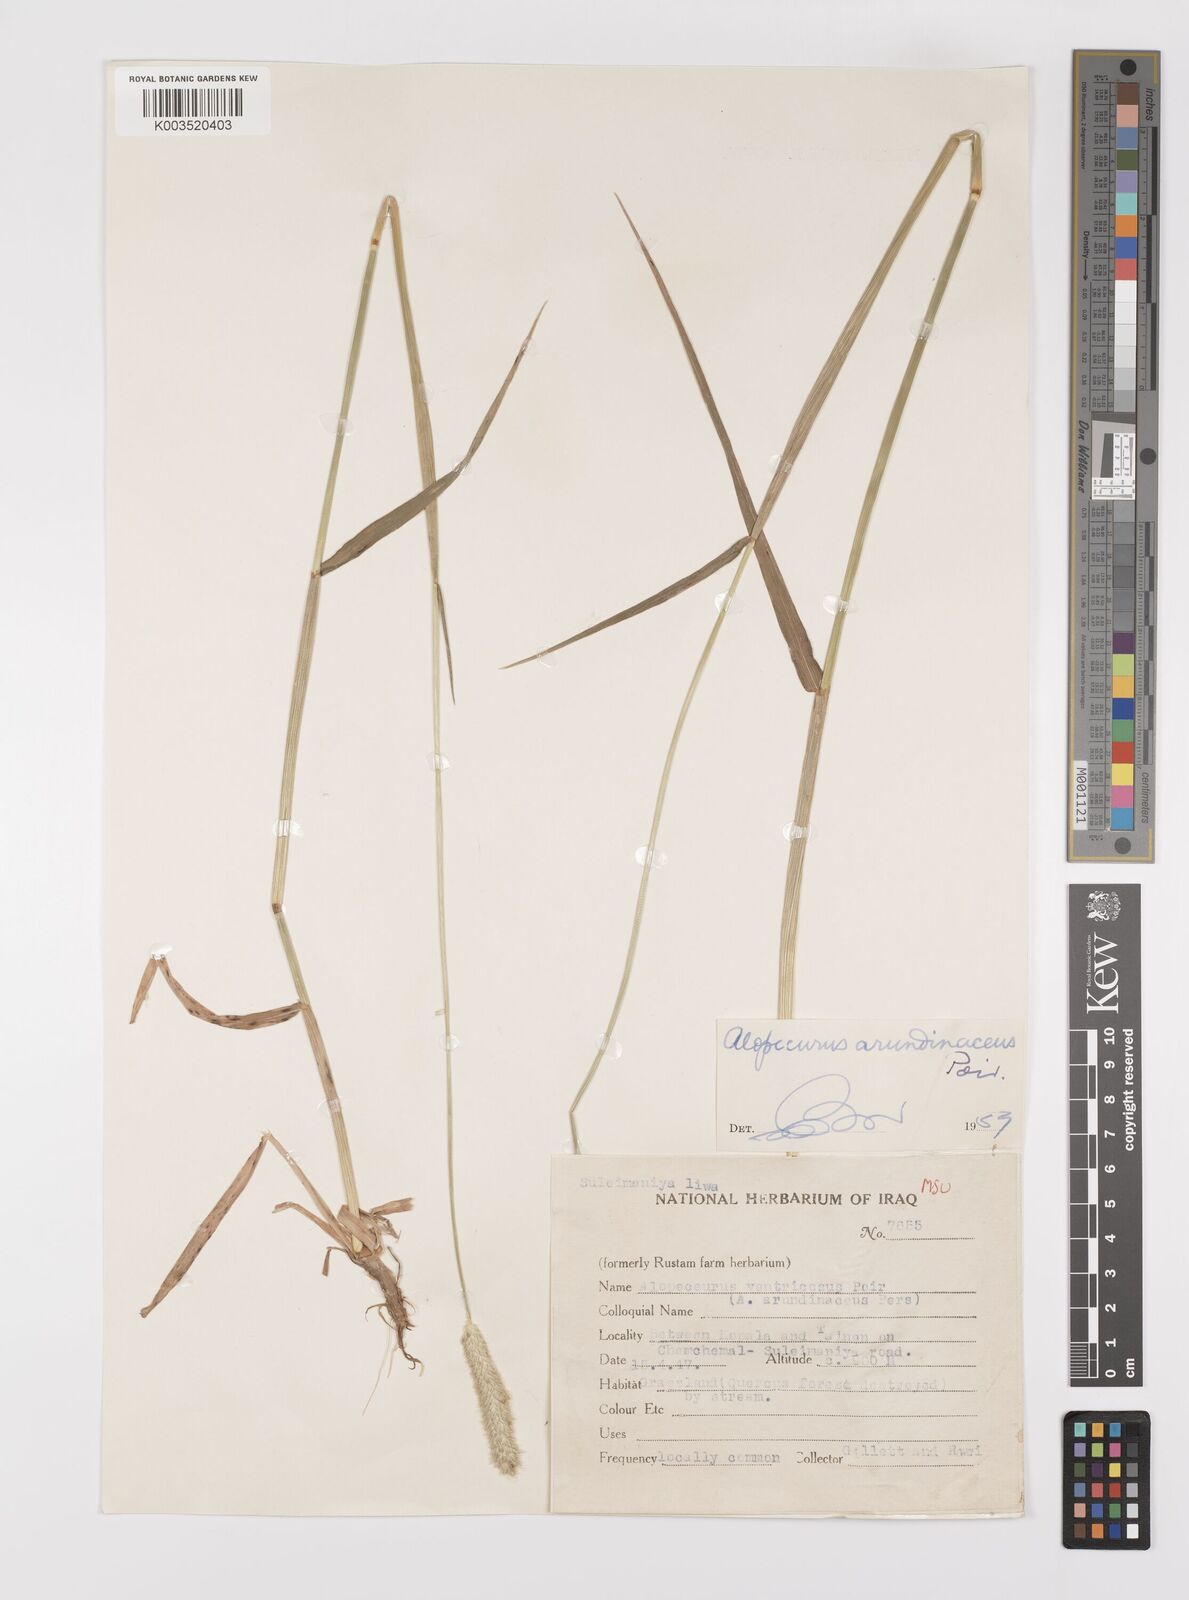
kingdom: Plantae
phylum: Tracheophyta
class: Liliopsida
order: Poales
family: Poaceae
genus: Alopecurus
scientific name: Alopecurus arundinaceus
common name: Creeping meadow foxtail
